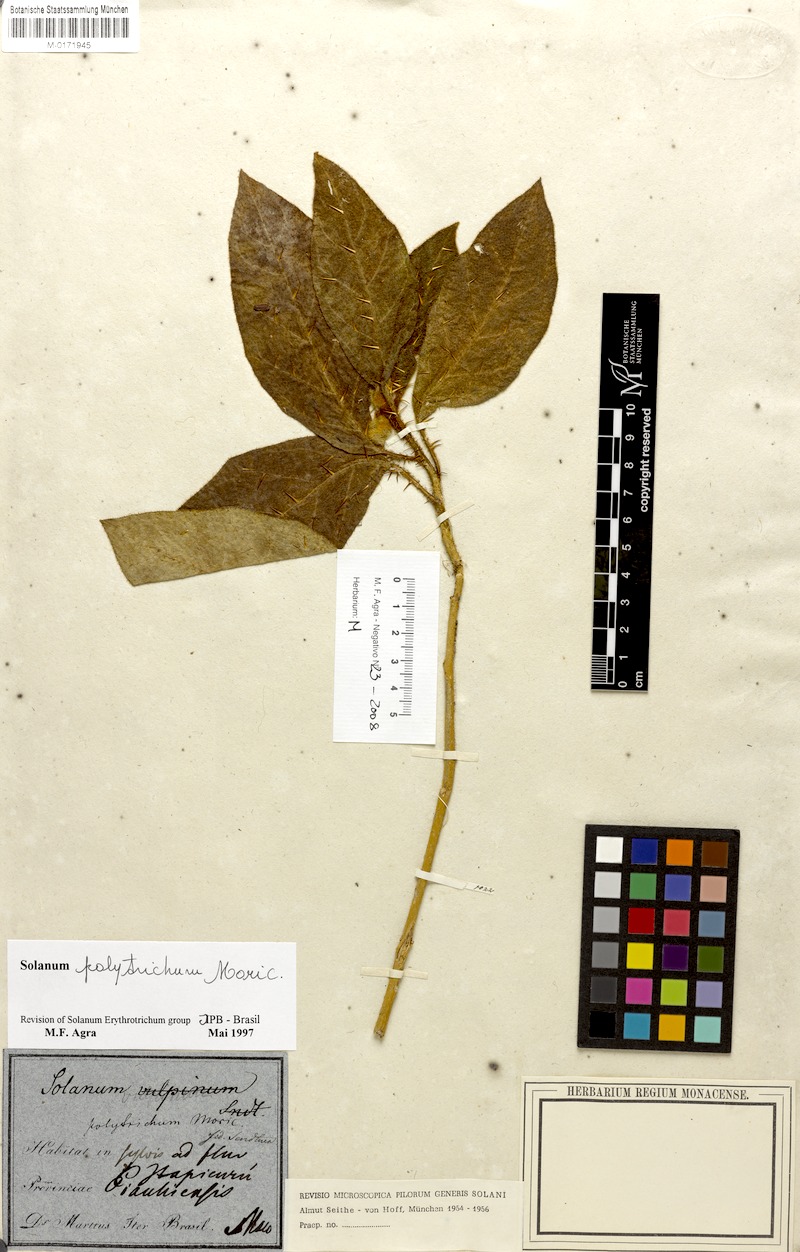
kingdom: Plantae
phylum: Tracheophyta
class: Magnoliopsida
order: Solanales
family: Solanaceae
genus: Solanum
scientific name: Solanum polytrichum
